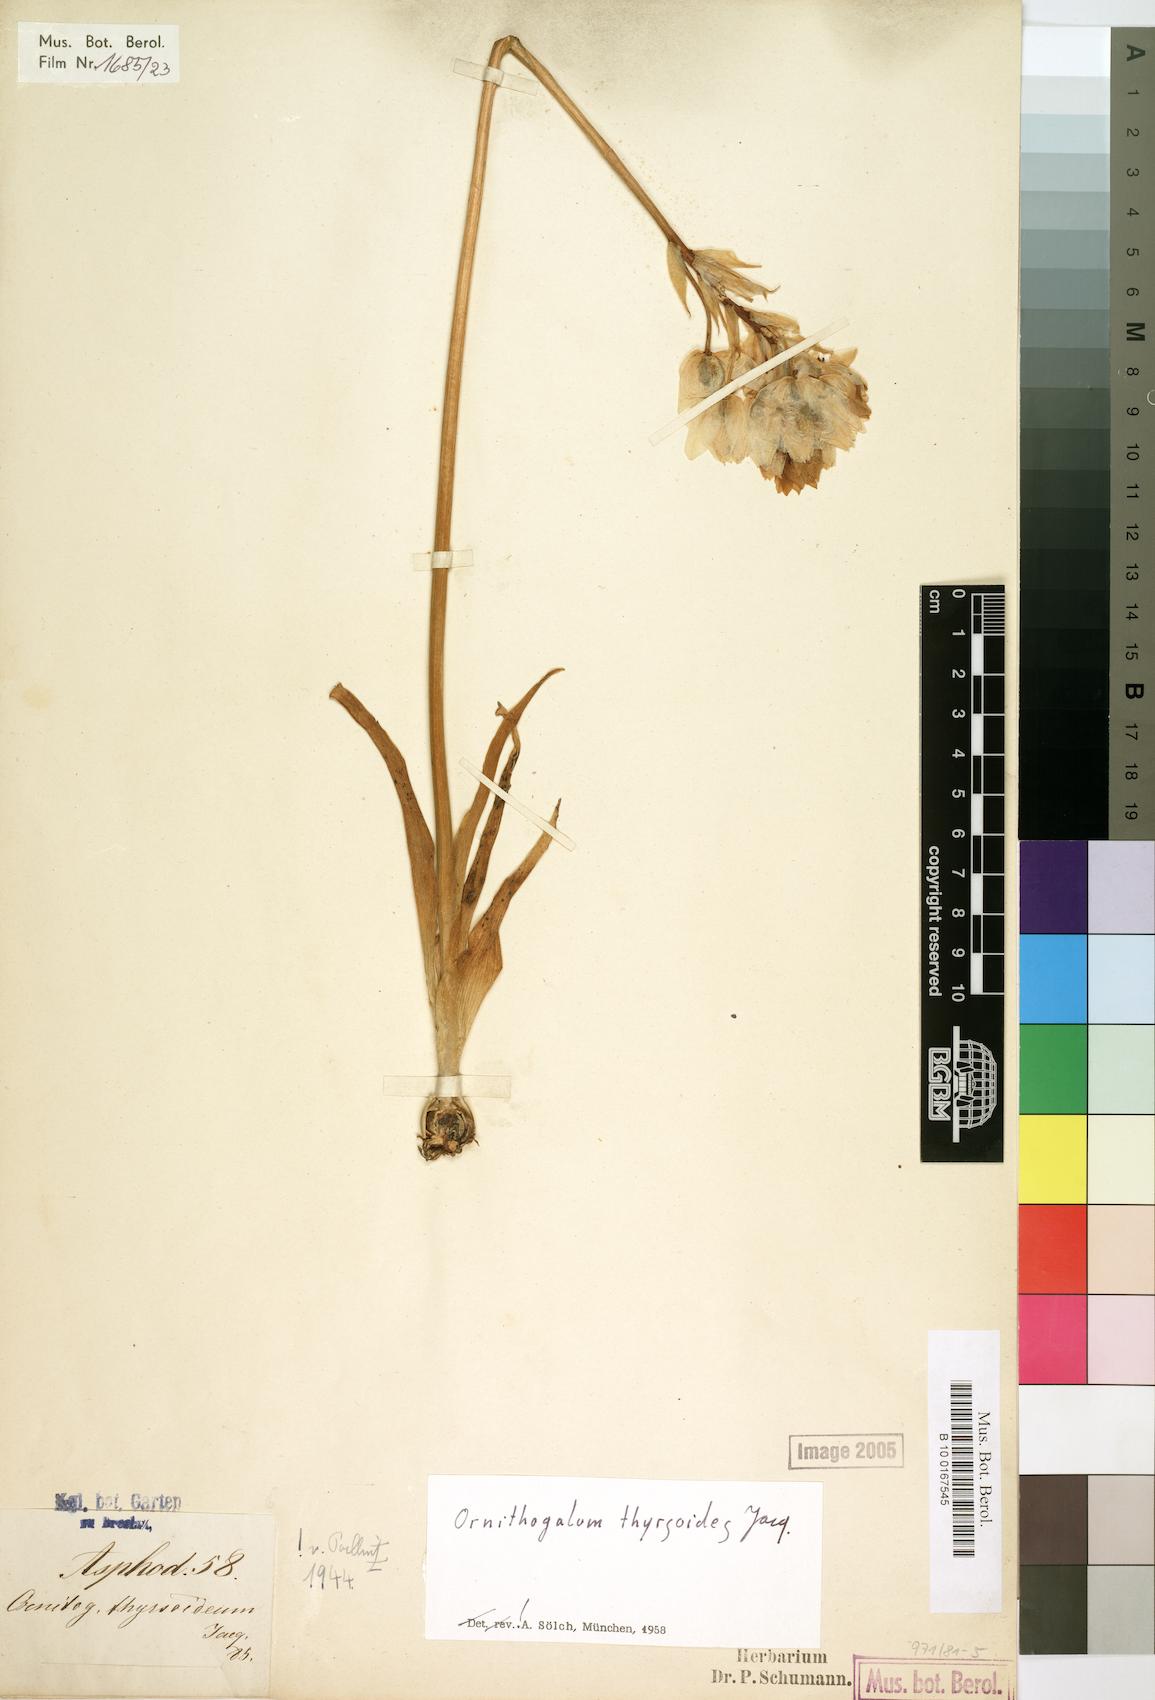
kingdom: Plantae
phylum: Tracheophyta
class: Liliopsida
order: Asparagales
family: Asparagaceae
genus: Ornithogalum
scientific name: Ornithogalum thyrsoides
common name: Chincherinchee
